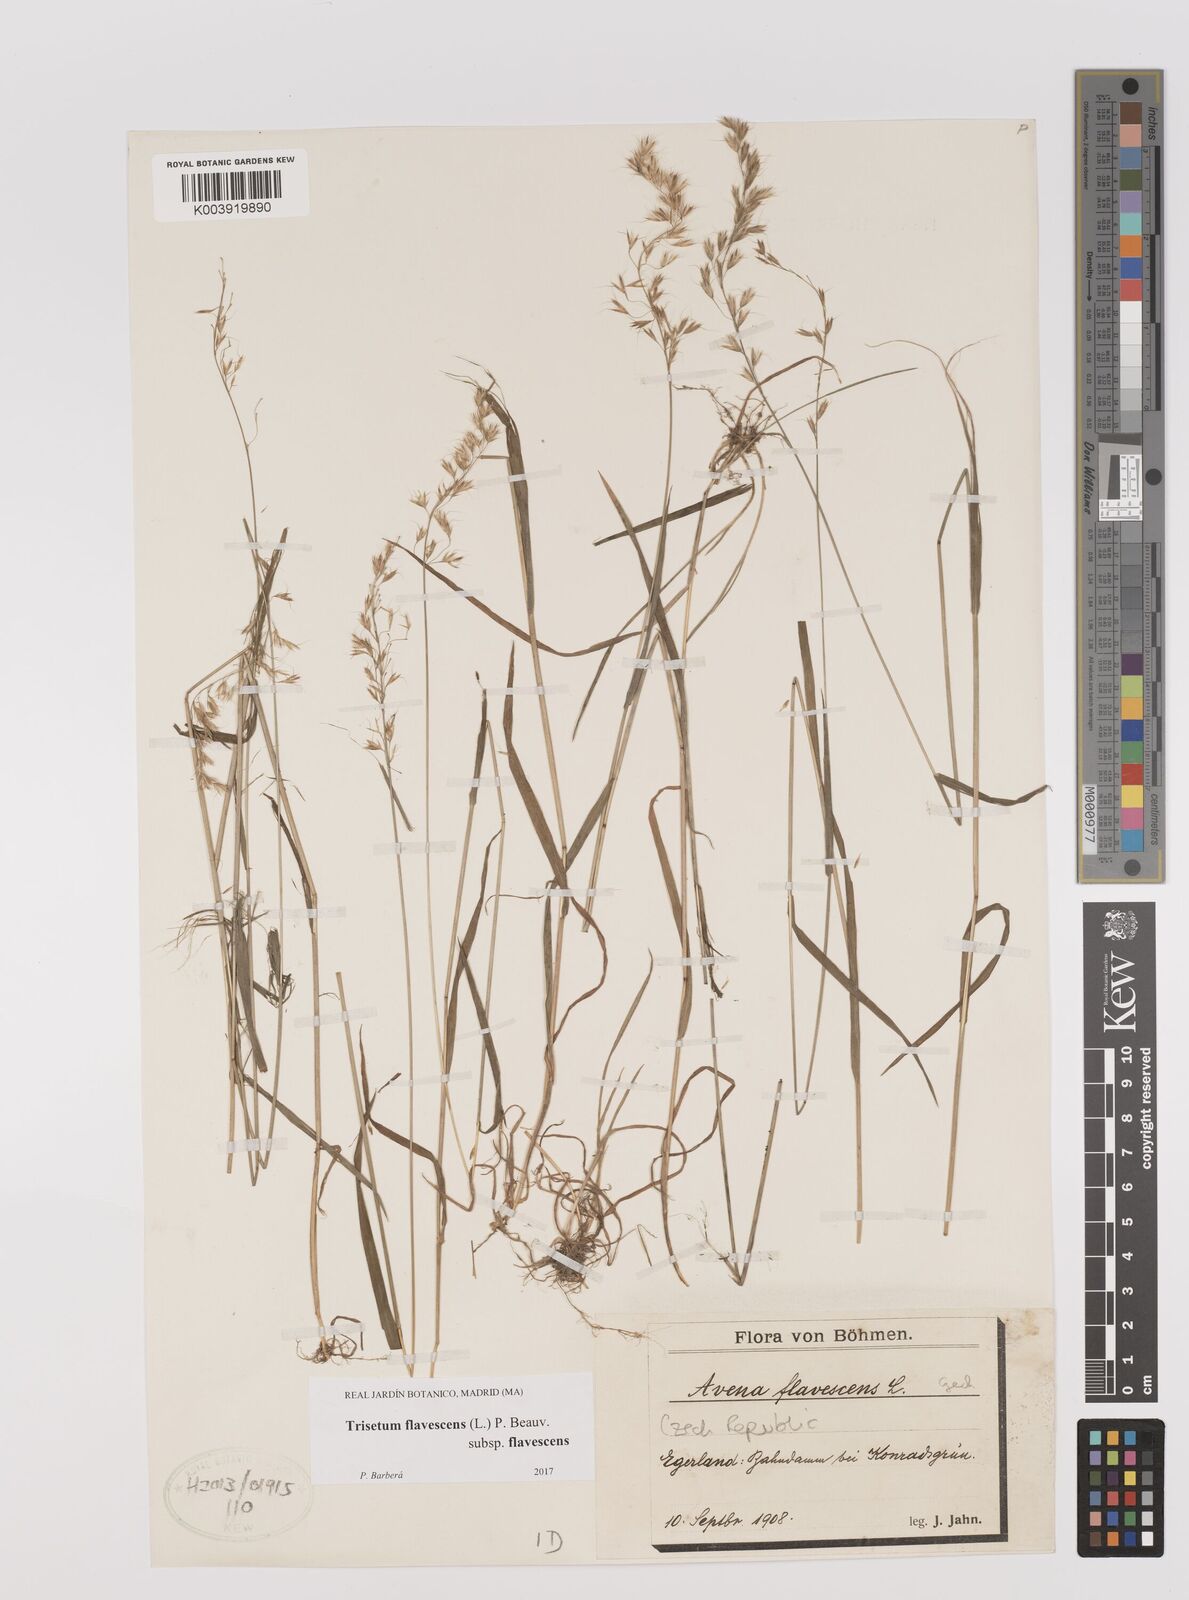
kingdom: Plantae
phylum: Tracheophyta
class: Liliopsida
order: Poales
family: Poaceae
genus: Trisetum
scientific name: Trisetum flavescens
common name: Yellow oat-grass
